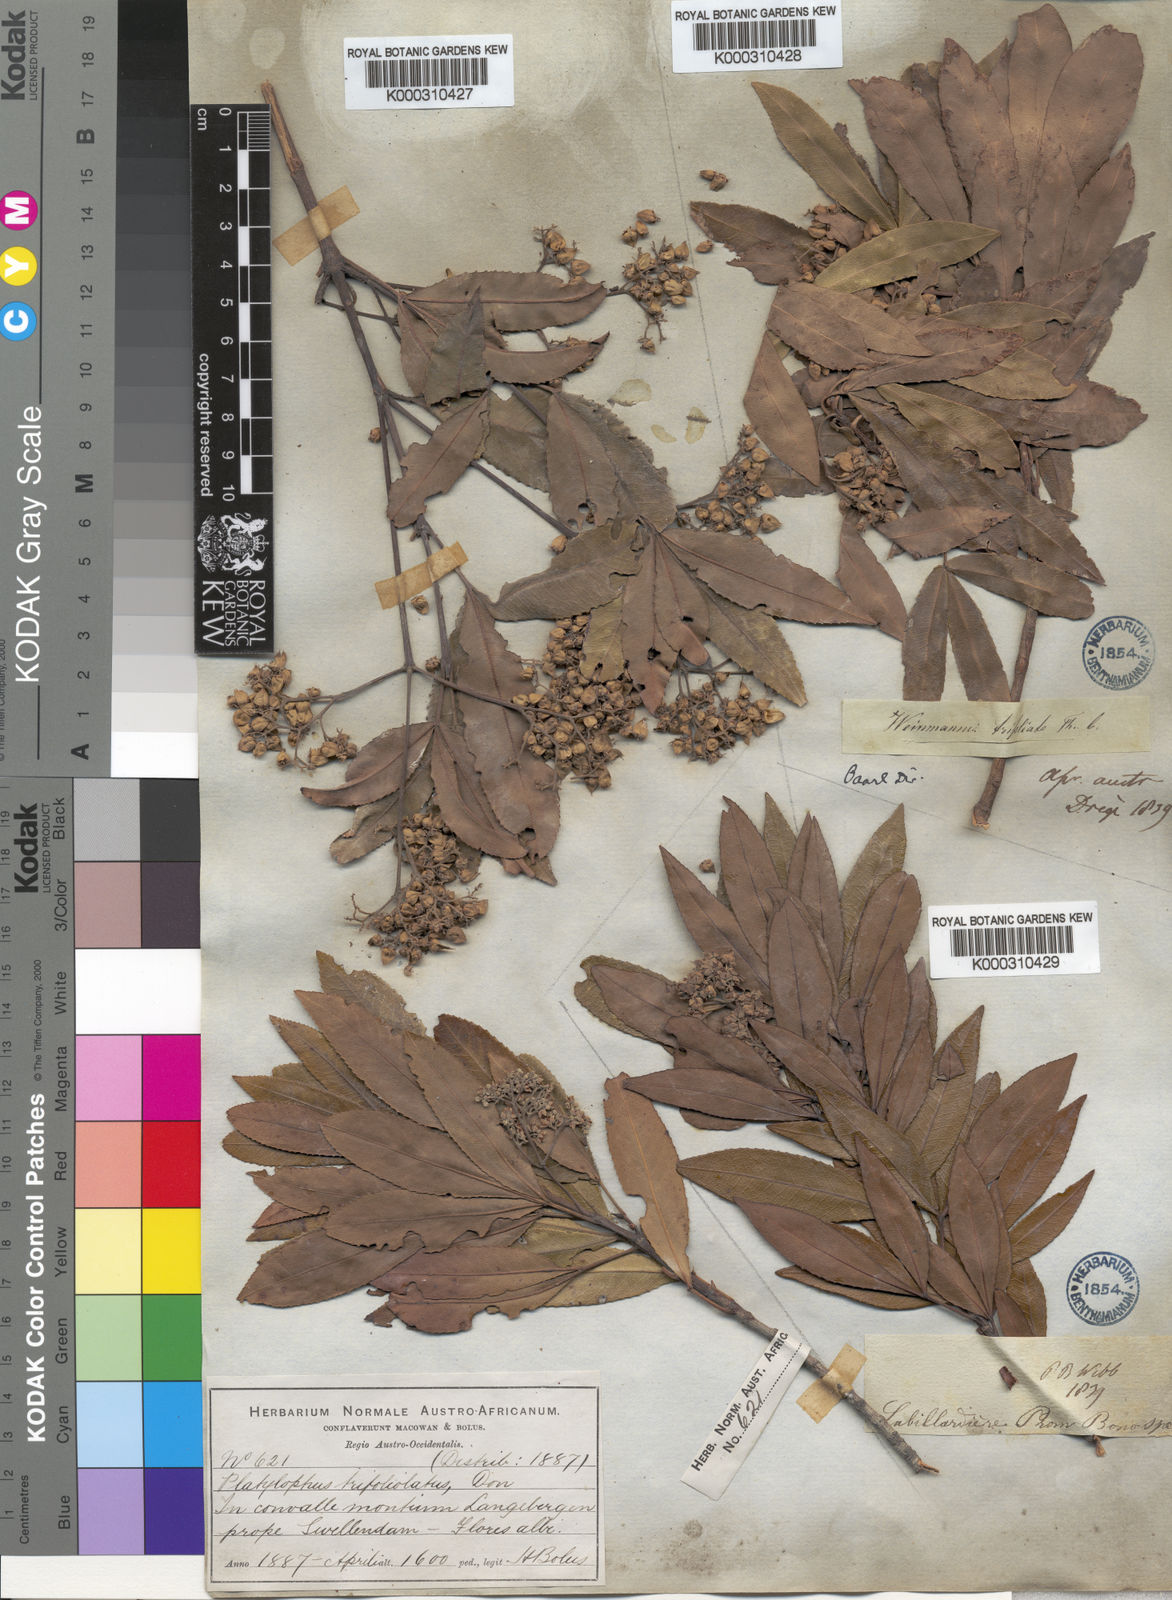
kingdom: Plantae
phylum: Tracheophyta
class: Magnoliopsida
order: Oxalidales
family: Cunoniaceae
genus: Platylophus
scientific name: Platylophus trifoliatus
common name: White alder
